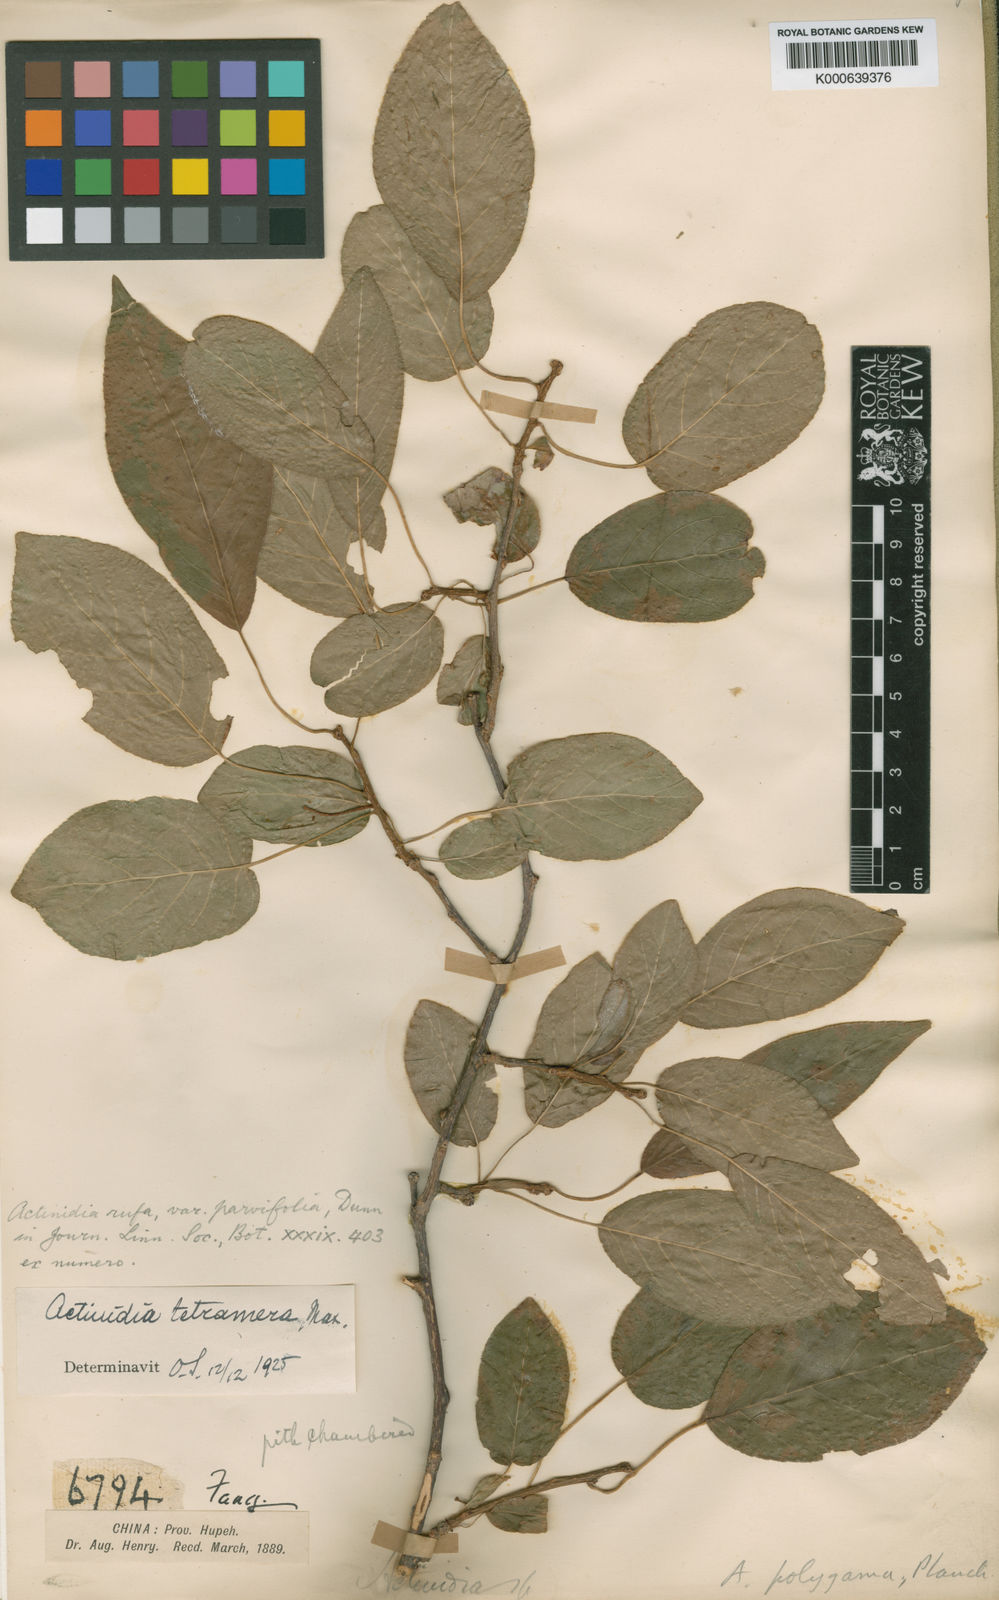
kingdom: Plantae
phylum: Tracheophyta
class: Magnoliopsida
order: Ericales
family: Actinidiaceae
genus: Actinidia
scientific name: Actinidia
